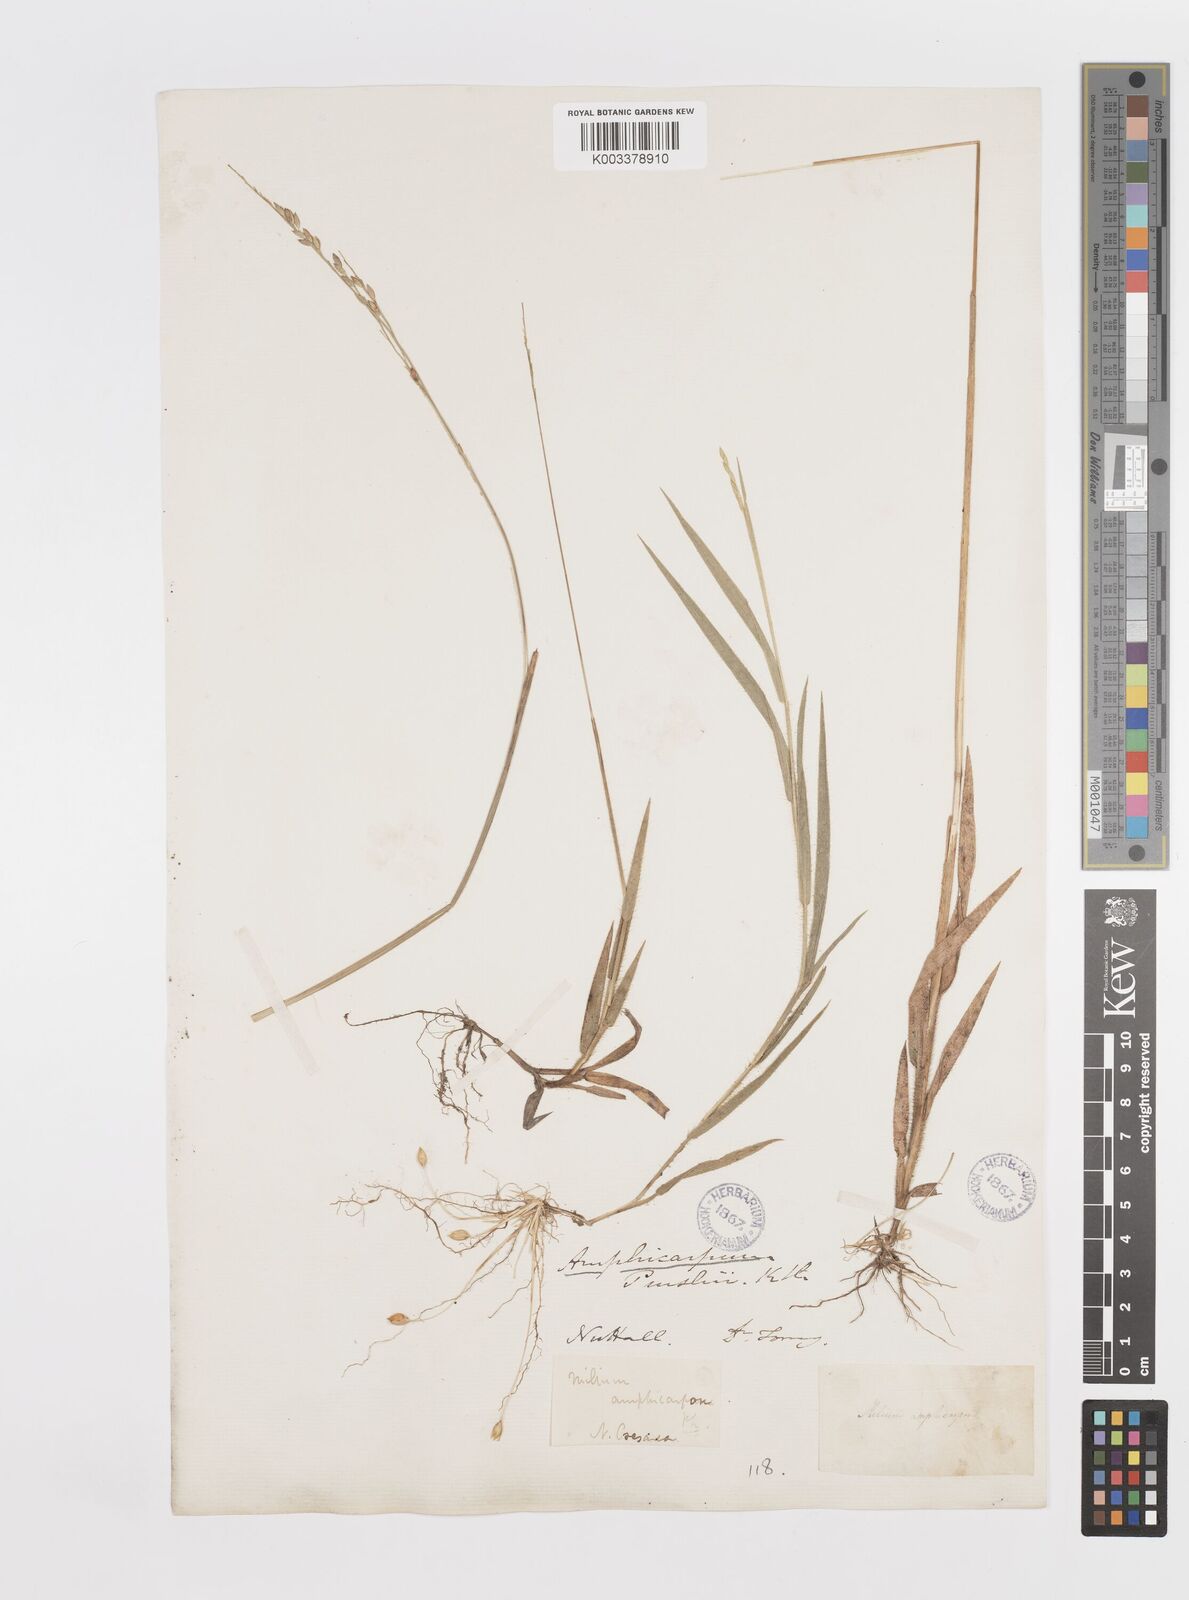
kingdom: Plantae
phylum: Tracheophyta
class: Liliopsida
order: Poales
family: Poaceae
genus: Amphicarpum
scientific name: Amphicarpum
